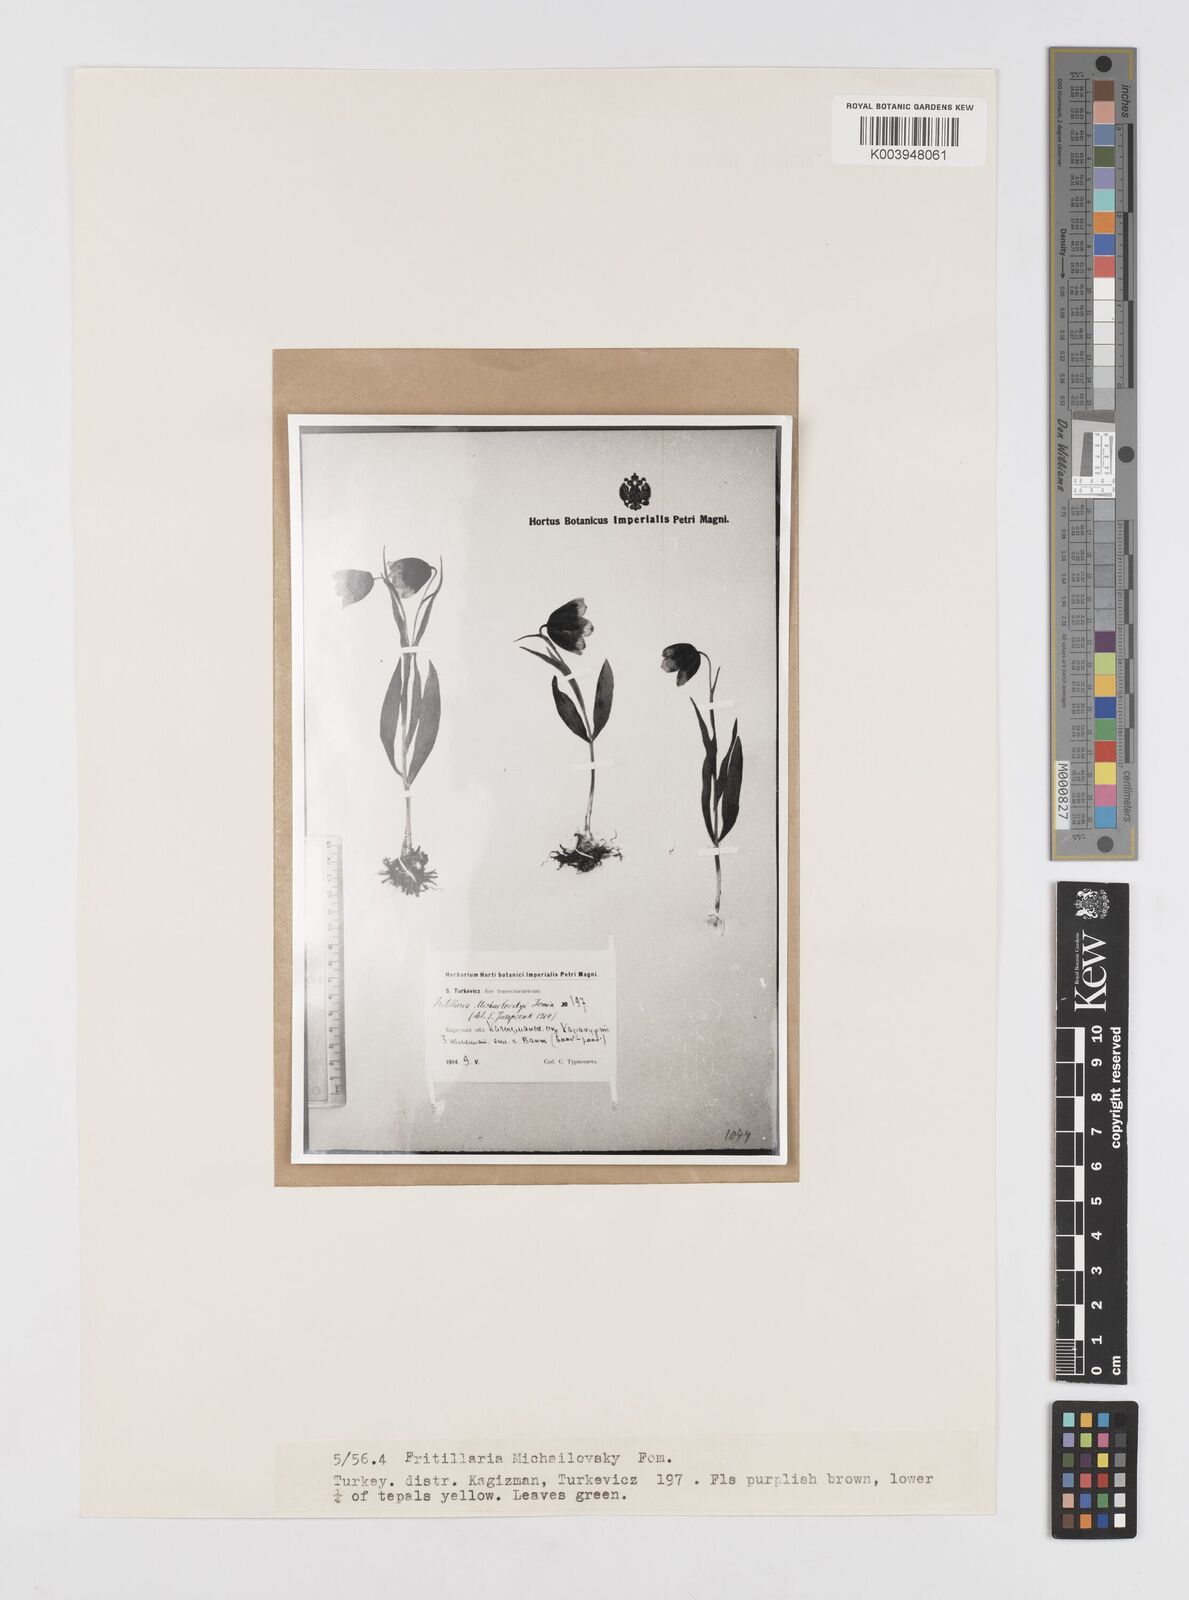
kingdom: Plantae
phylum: Tracheophyta
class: Liliopsida
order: Liliales
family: Liliaceae
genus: Fritillaria
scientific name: Fritillaria michailovskyi
